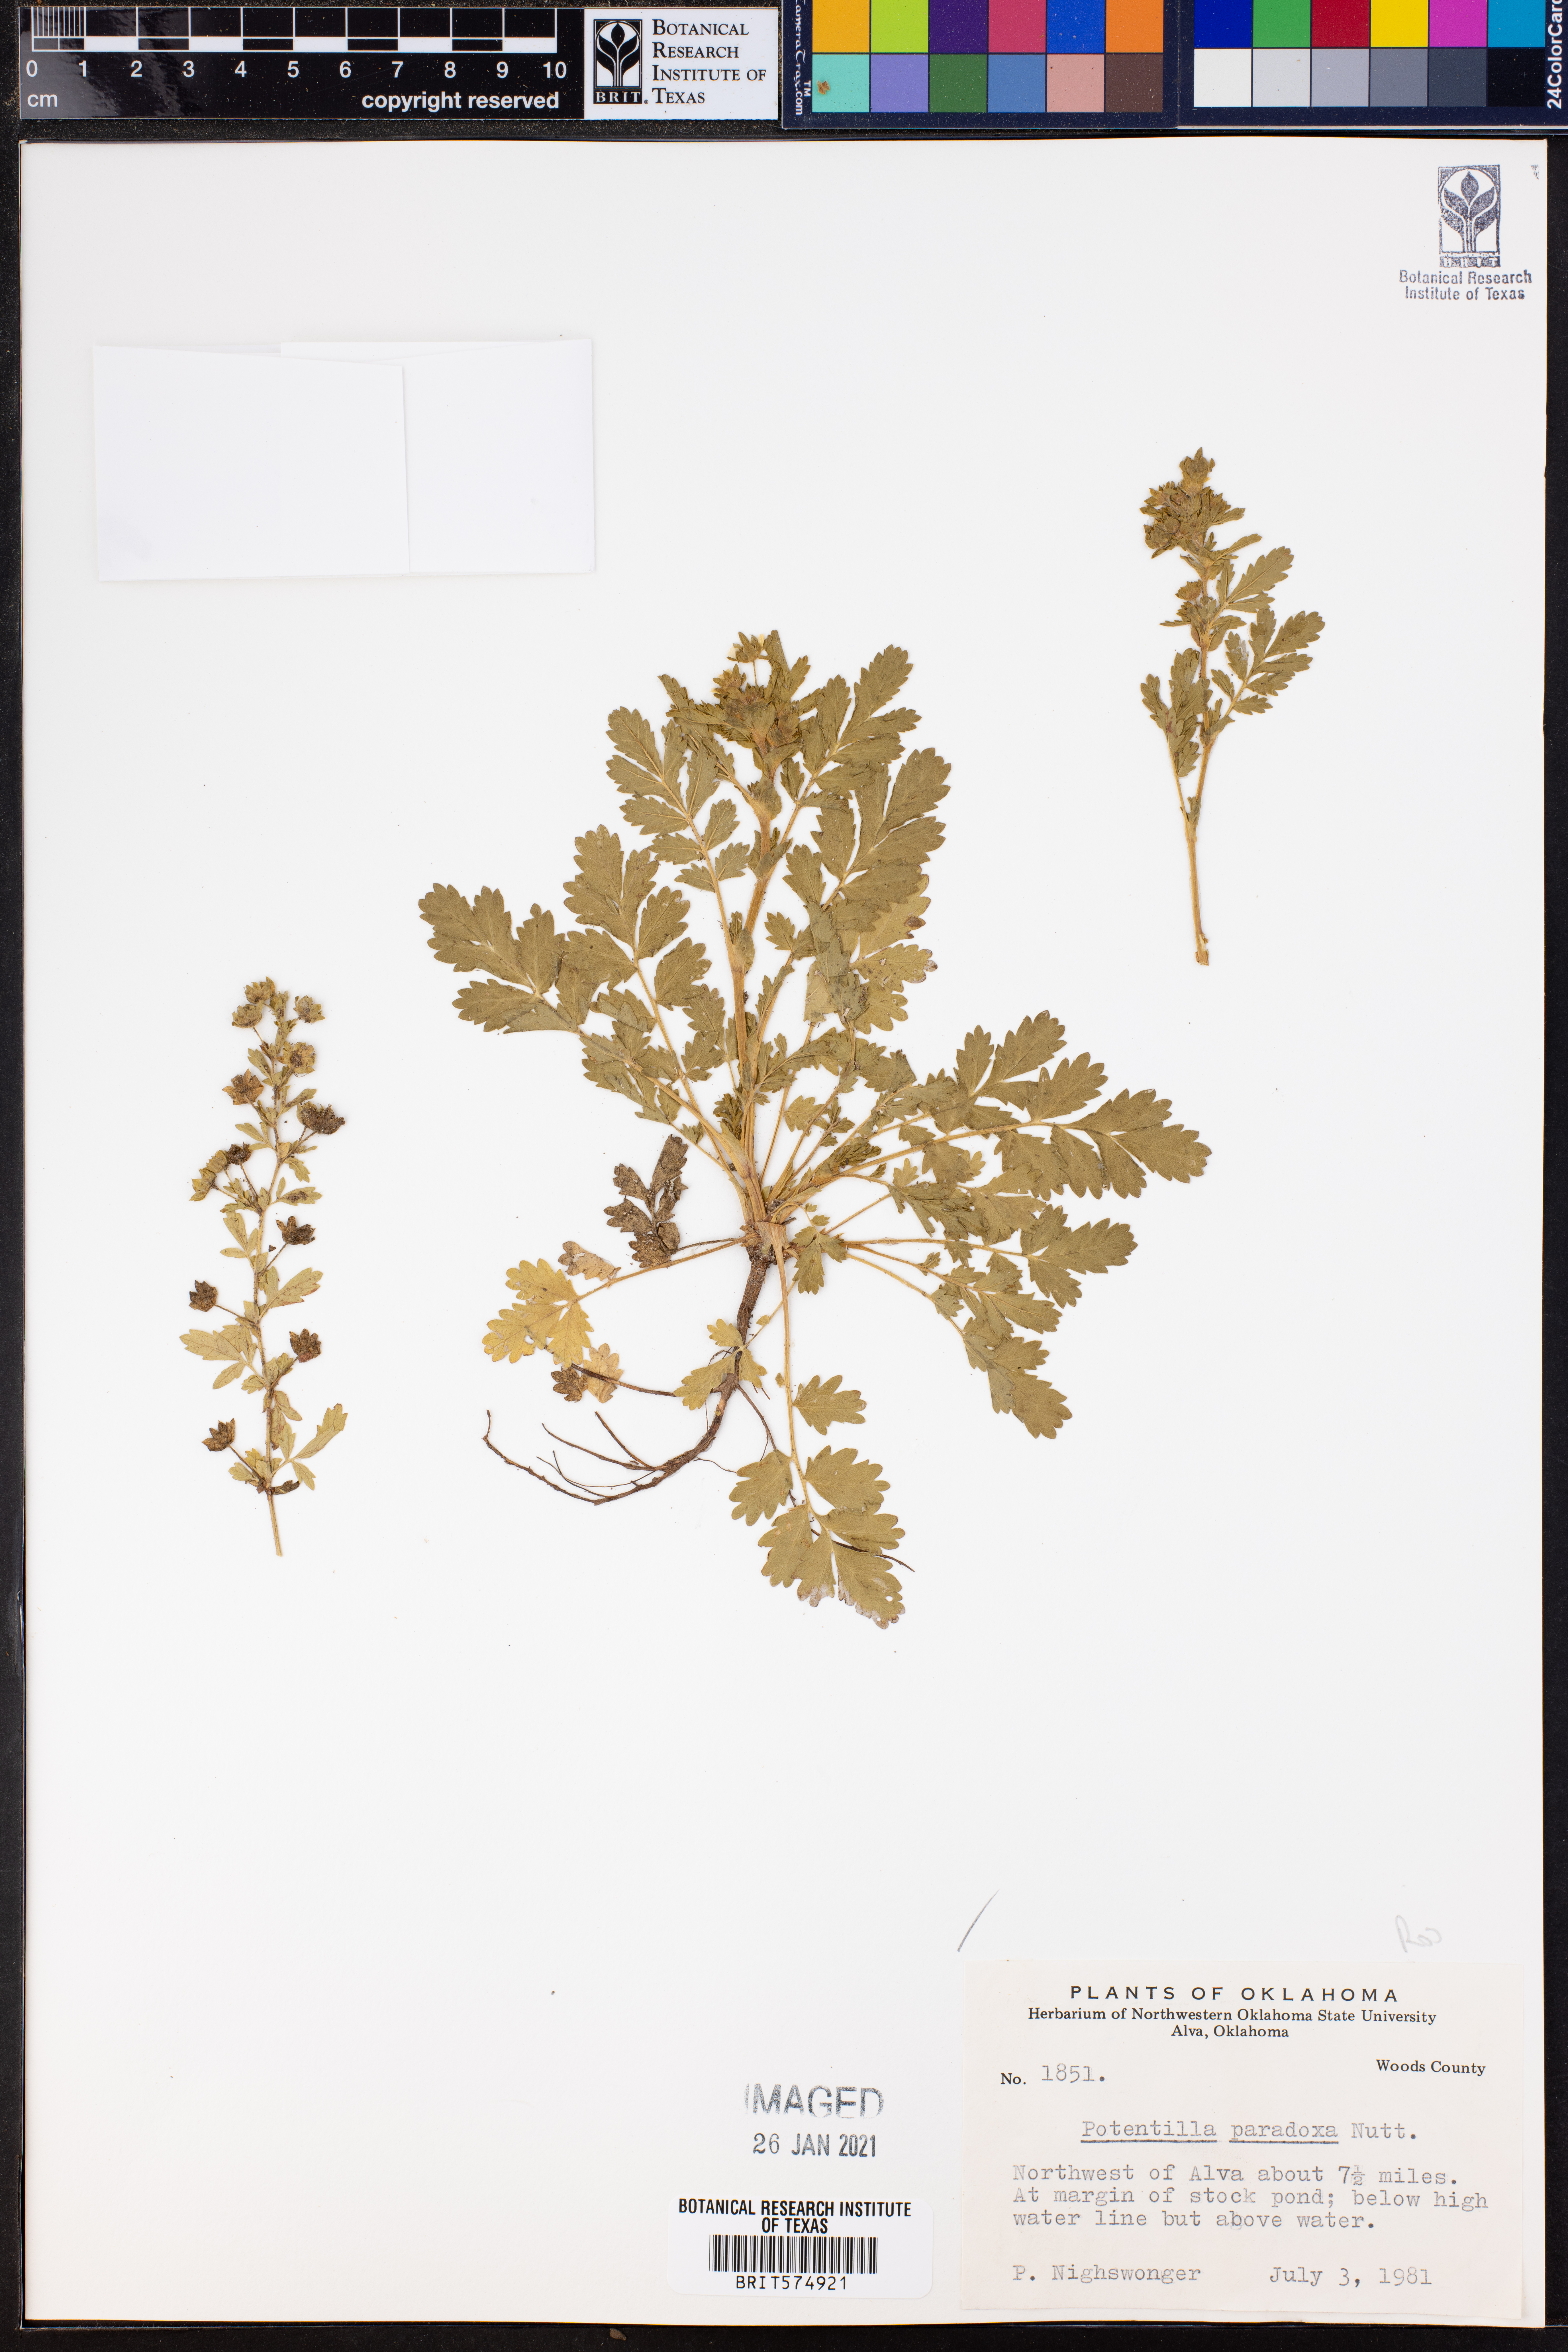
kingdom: Plantae
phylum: Tracheophyta
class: Magnoliopsida
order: Rosales
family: Rosaceae
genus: Potentilla
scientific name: Potentilla supina
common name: Prostrate cinquefoil
